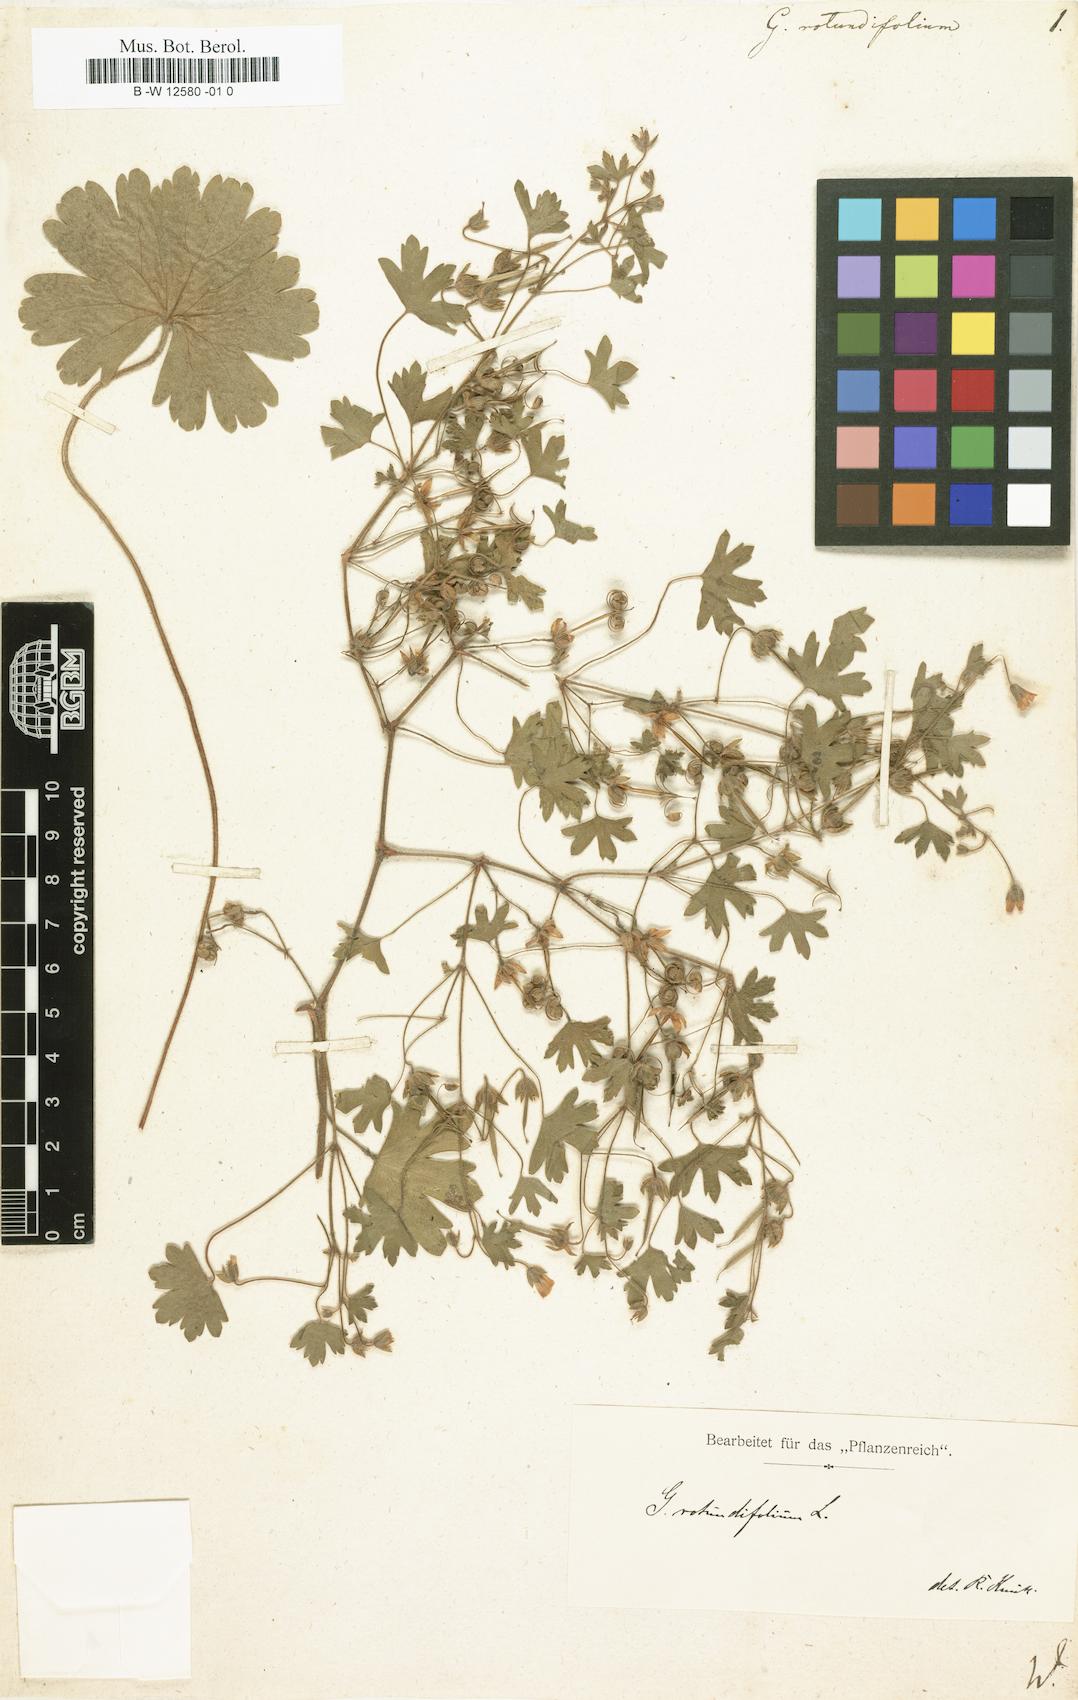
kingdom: Plantae
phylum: Tracheophyta
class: Magnoliopsida
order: Geraniales
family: Geraniaceae
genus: Geranium
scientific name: Geranium rotundifolium
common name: Round-leaved crane's-bill
